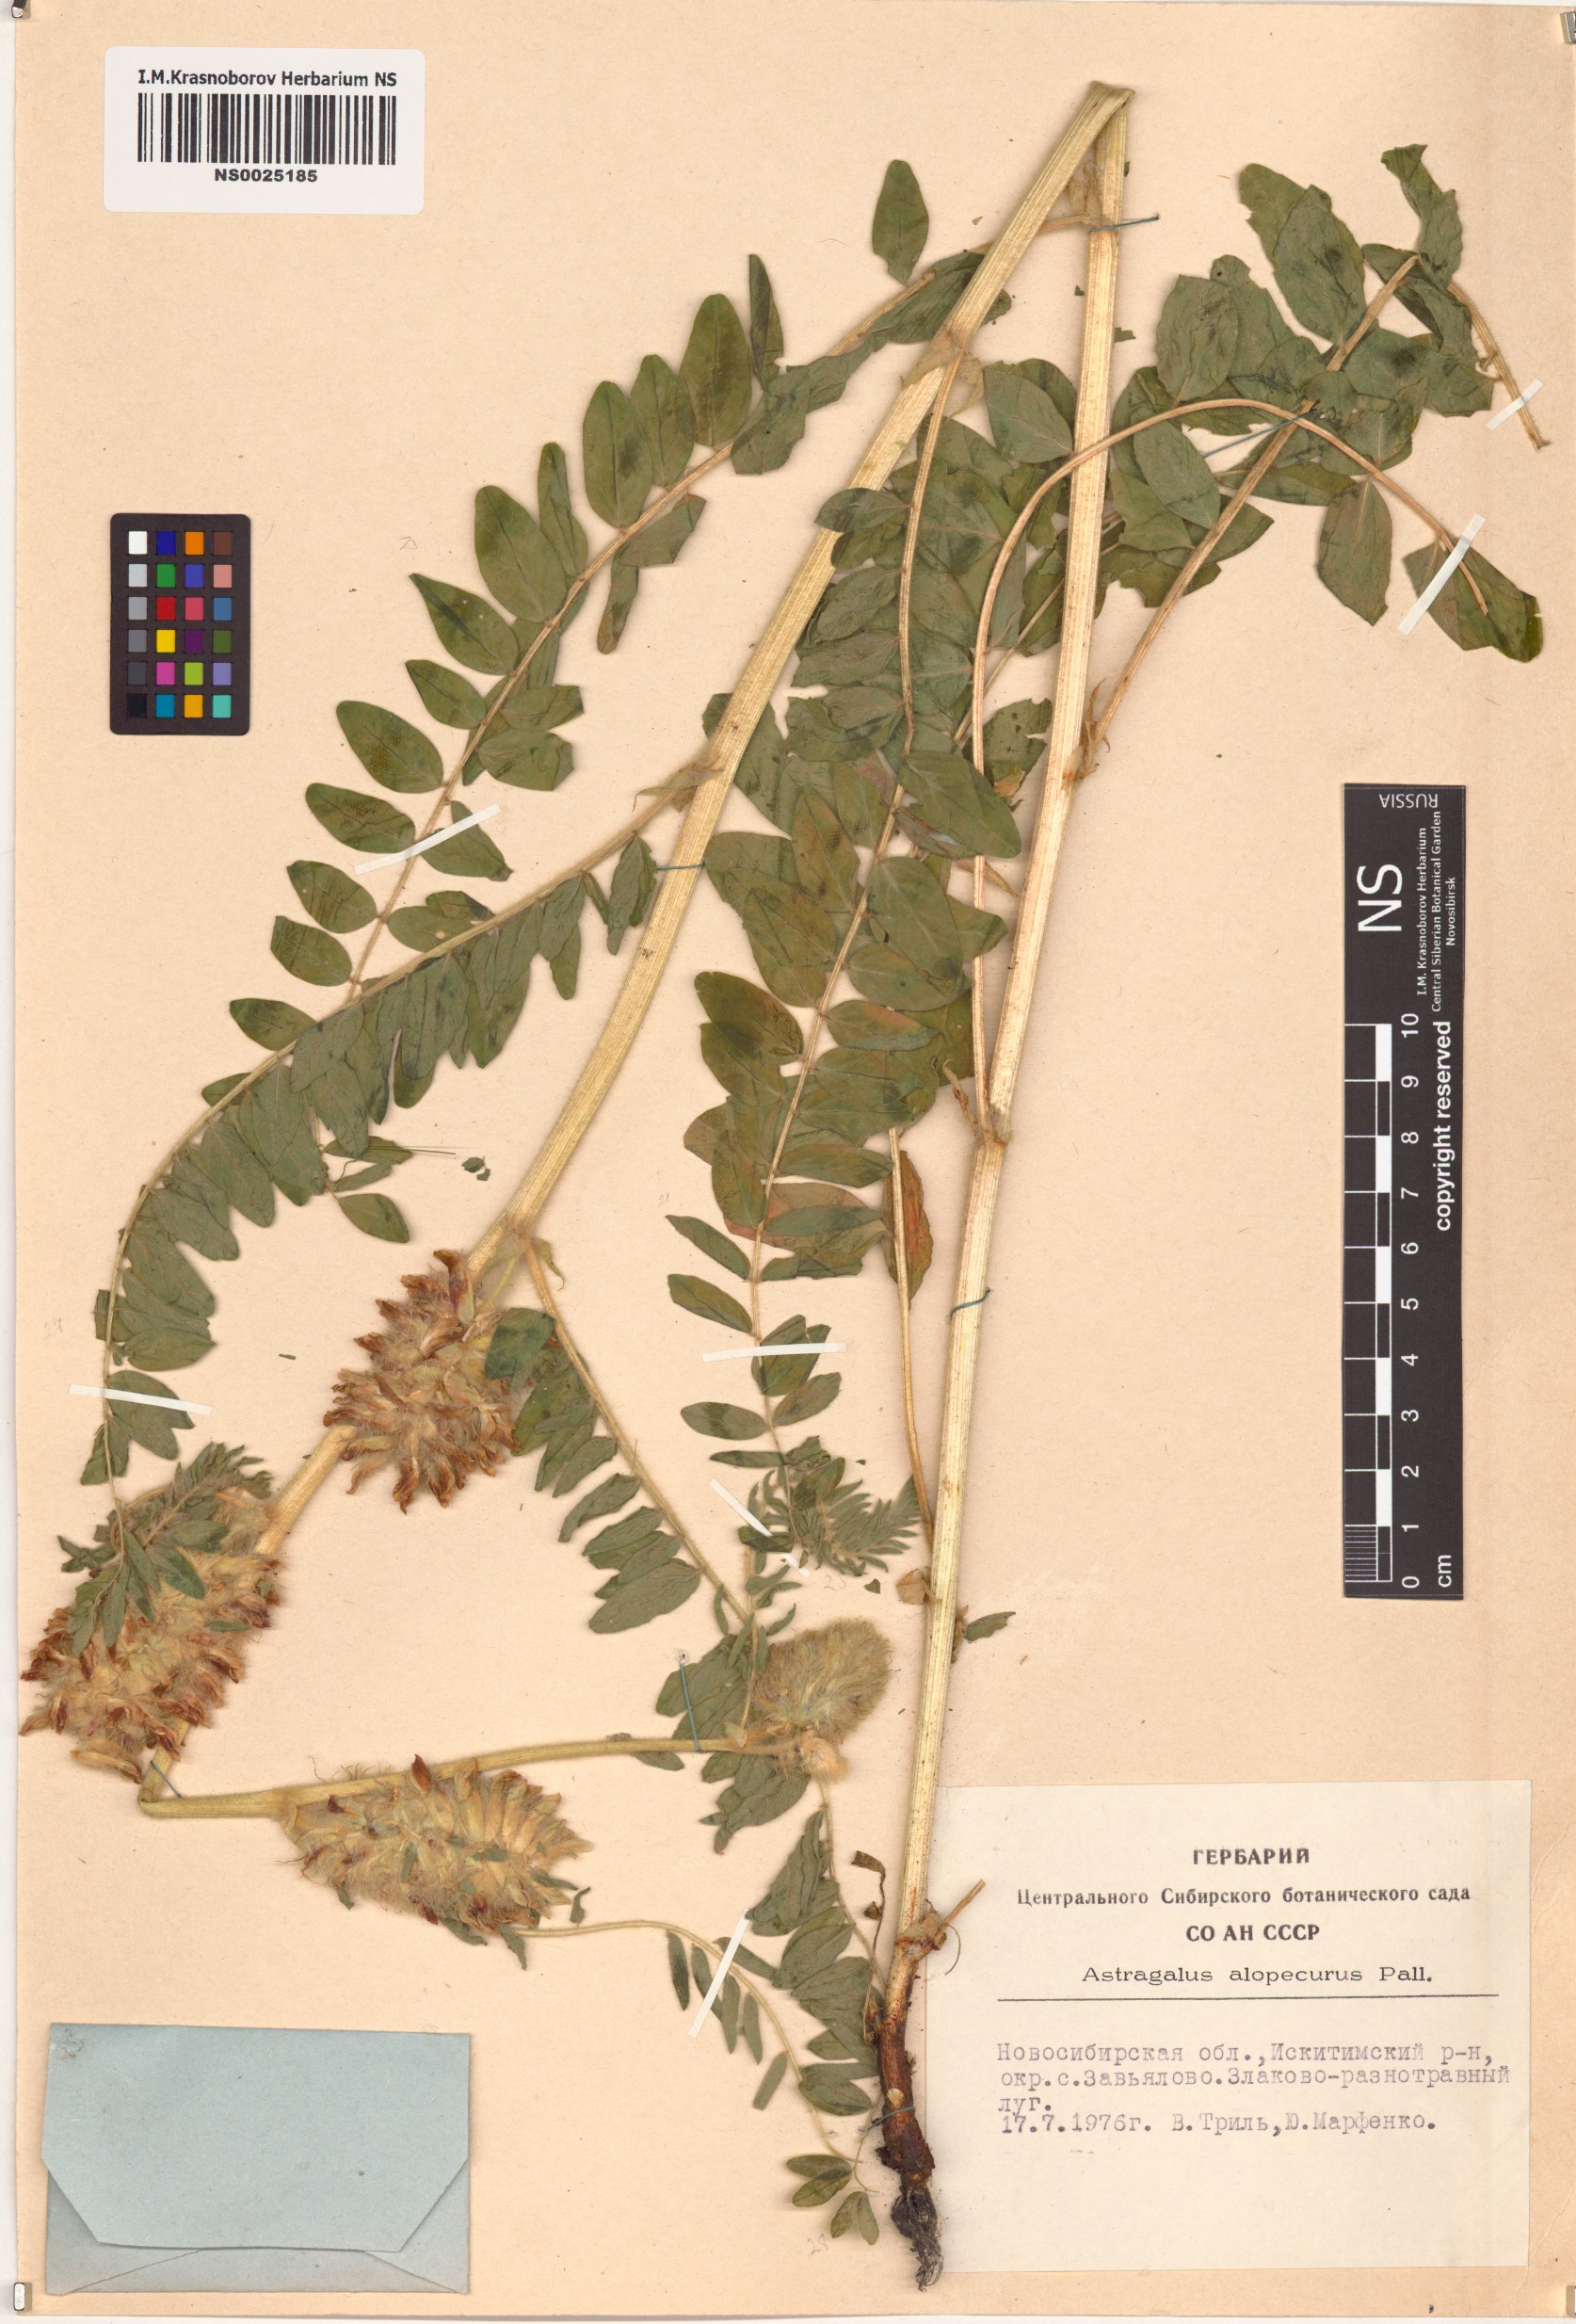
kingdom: Plantae
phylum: Tracheophyta
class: Magnoliopsida
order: Fabales
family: Fabaceae
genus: Astragalus
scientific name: Astragalus alopecurus
